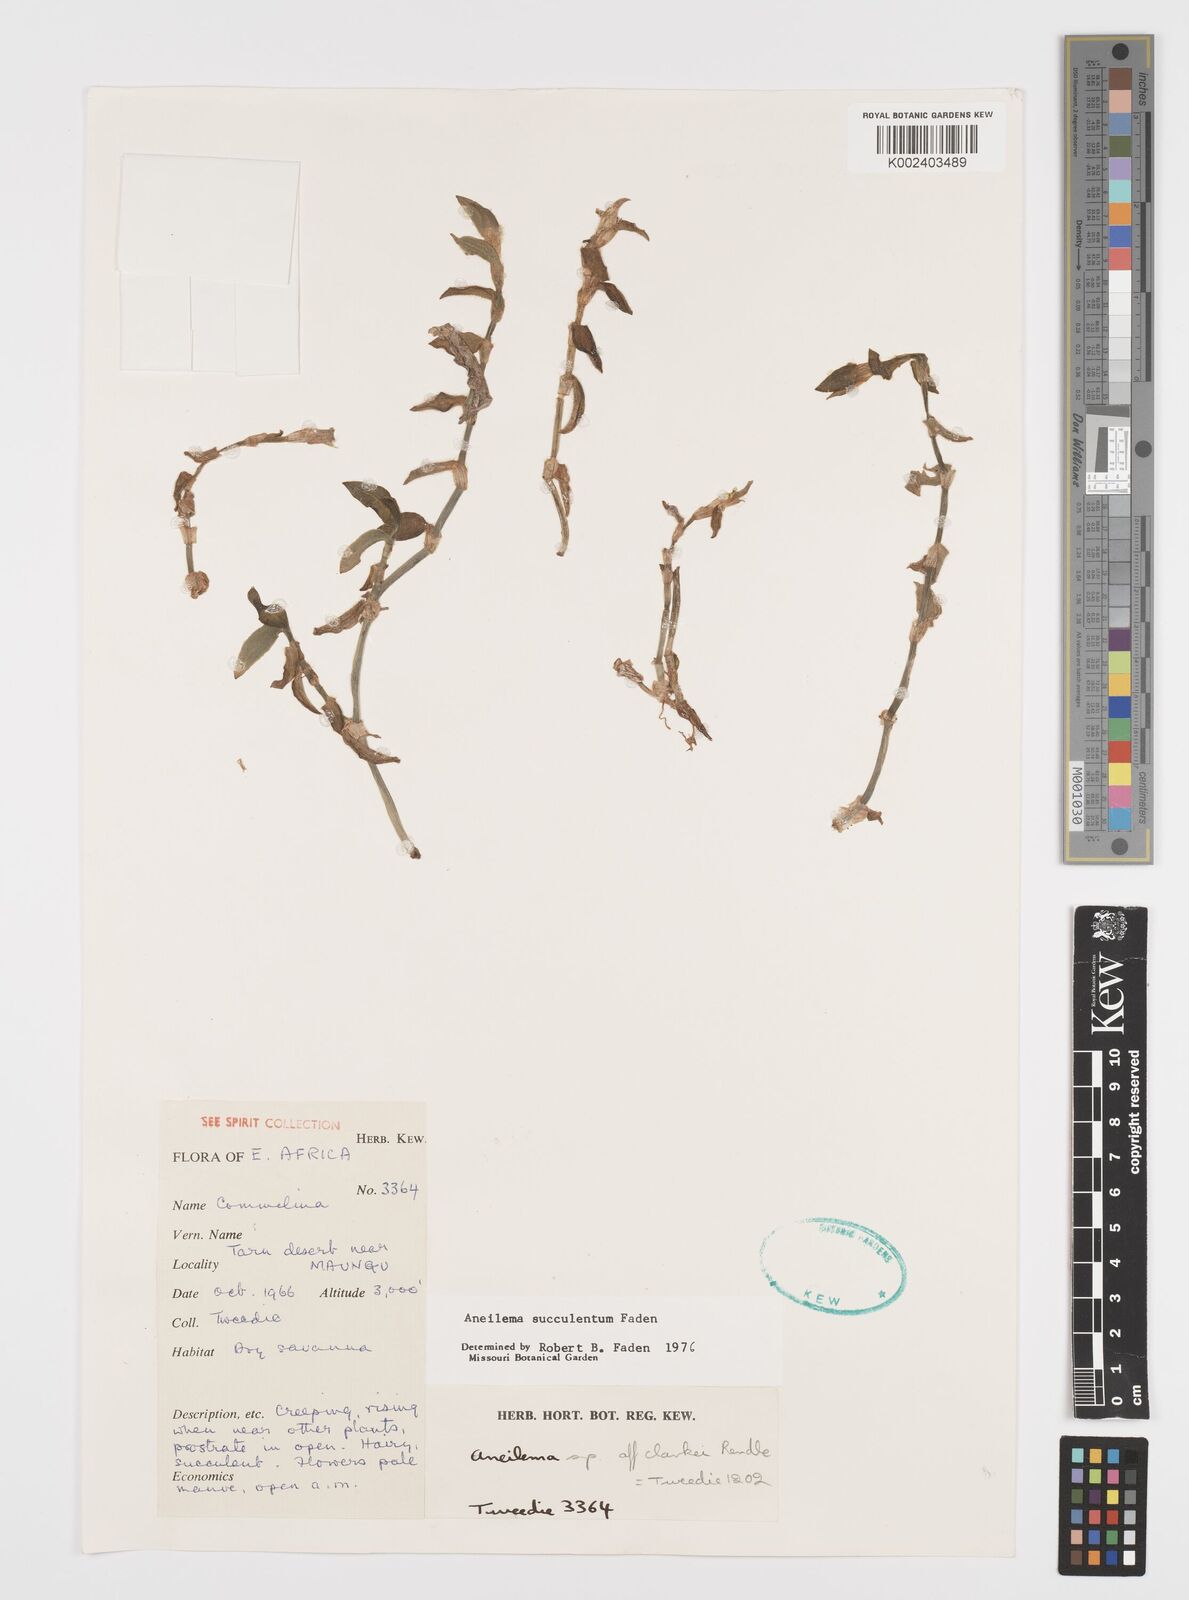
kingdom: Plantae
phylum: Tracheophyta
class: Liliopsida
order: Commelinales
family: Commelinaceae
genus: Aneilema
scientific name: Aneilema succulentum
